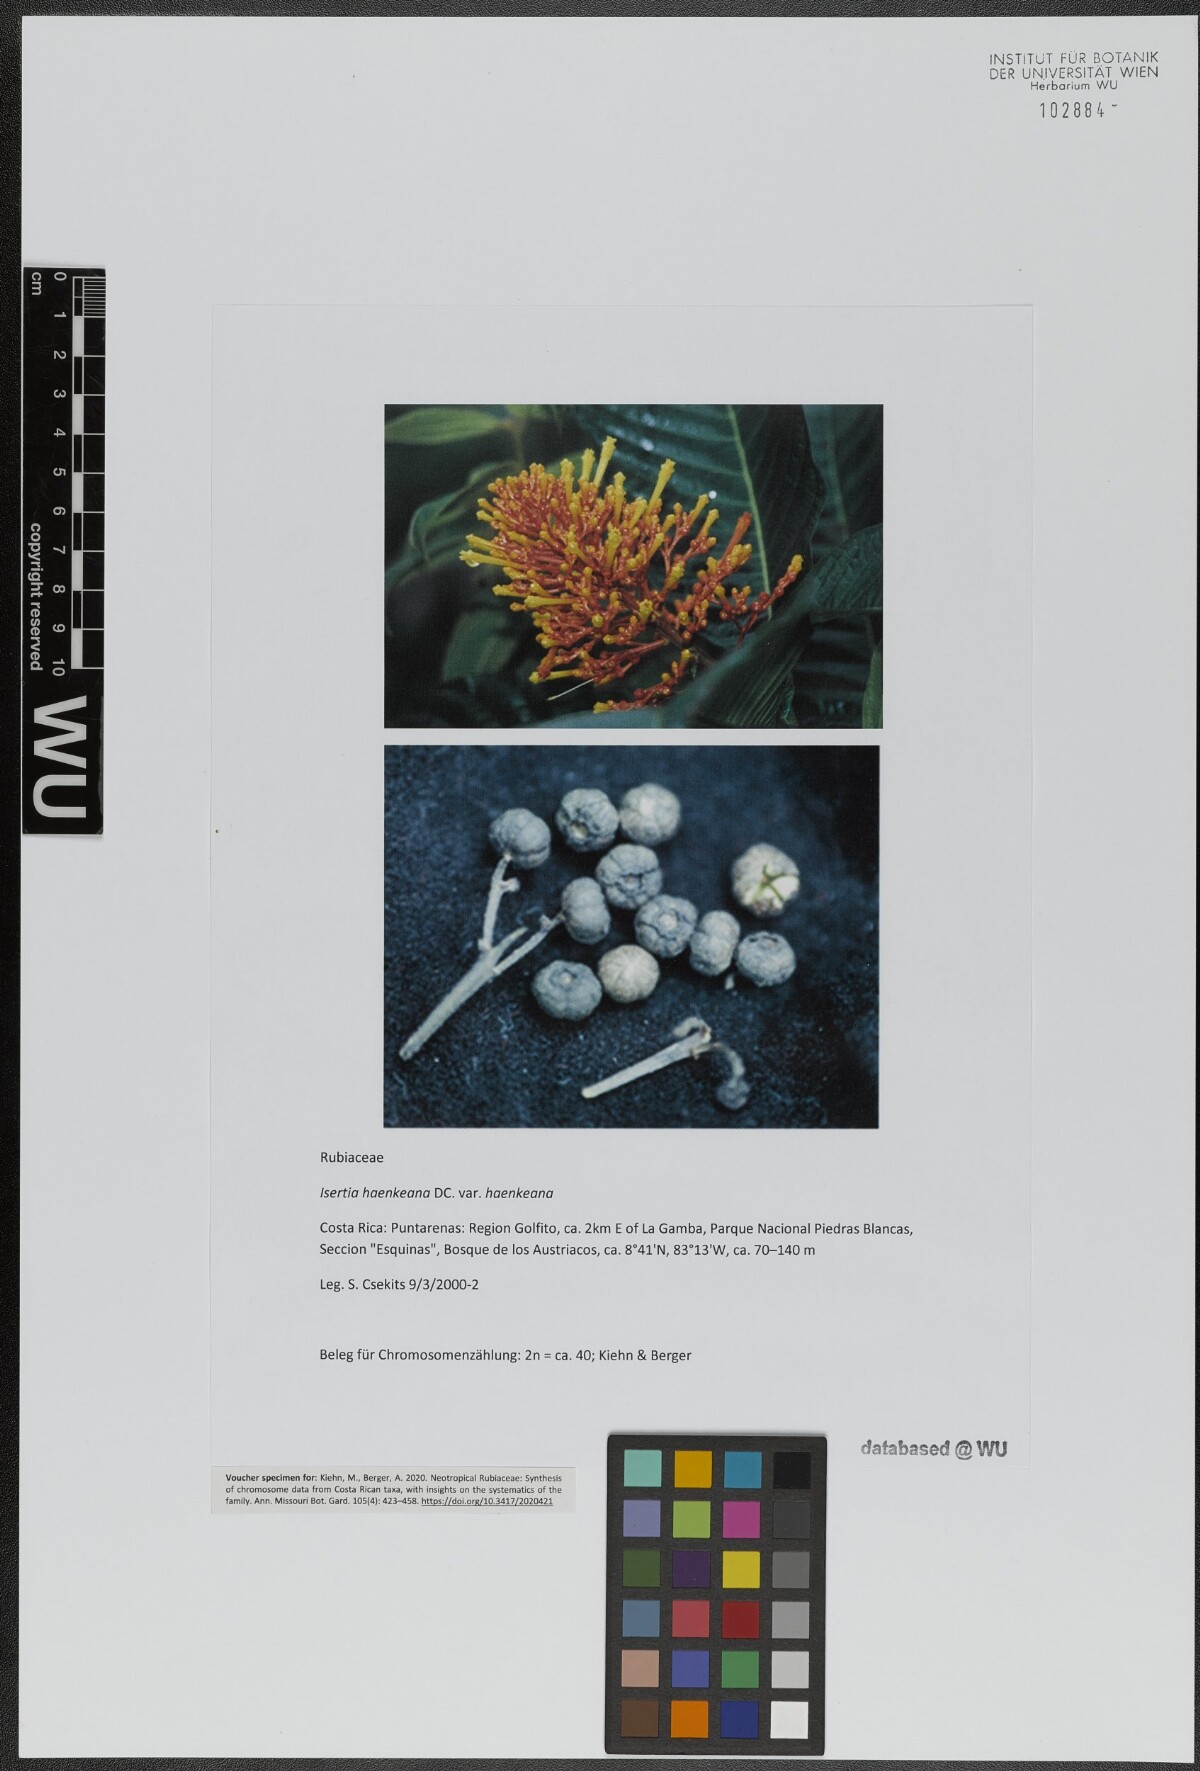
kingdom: Plantae
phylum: Tracheophyta
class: Magnoliopsida
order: Gentianales
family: Rubiaceae
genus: Isertia
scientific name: Isertia haenkeana
